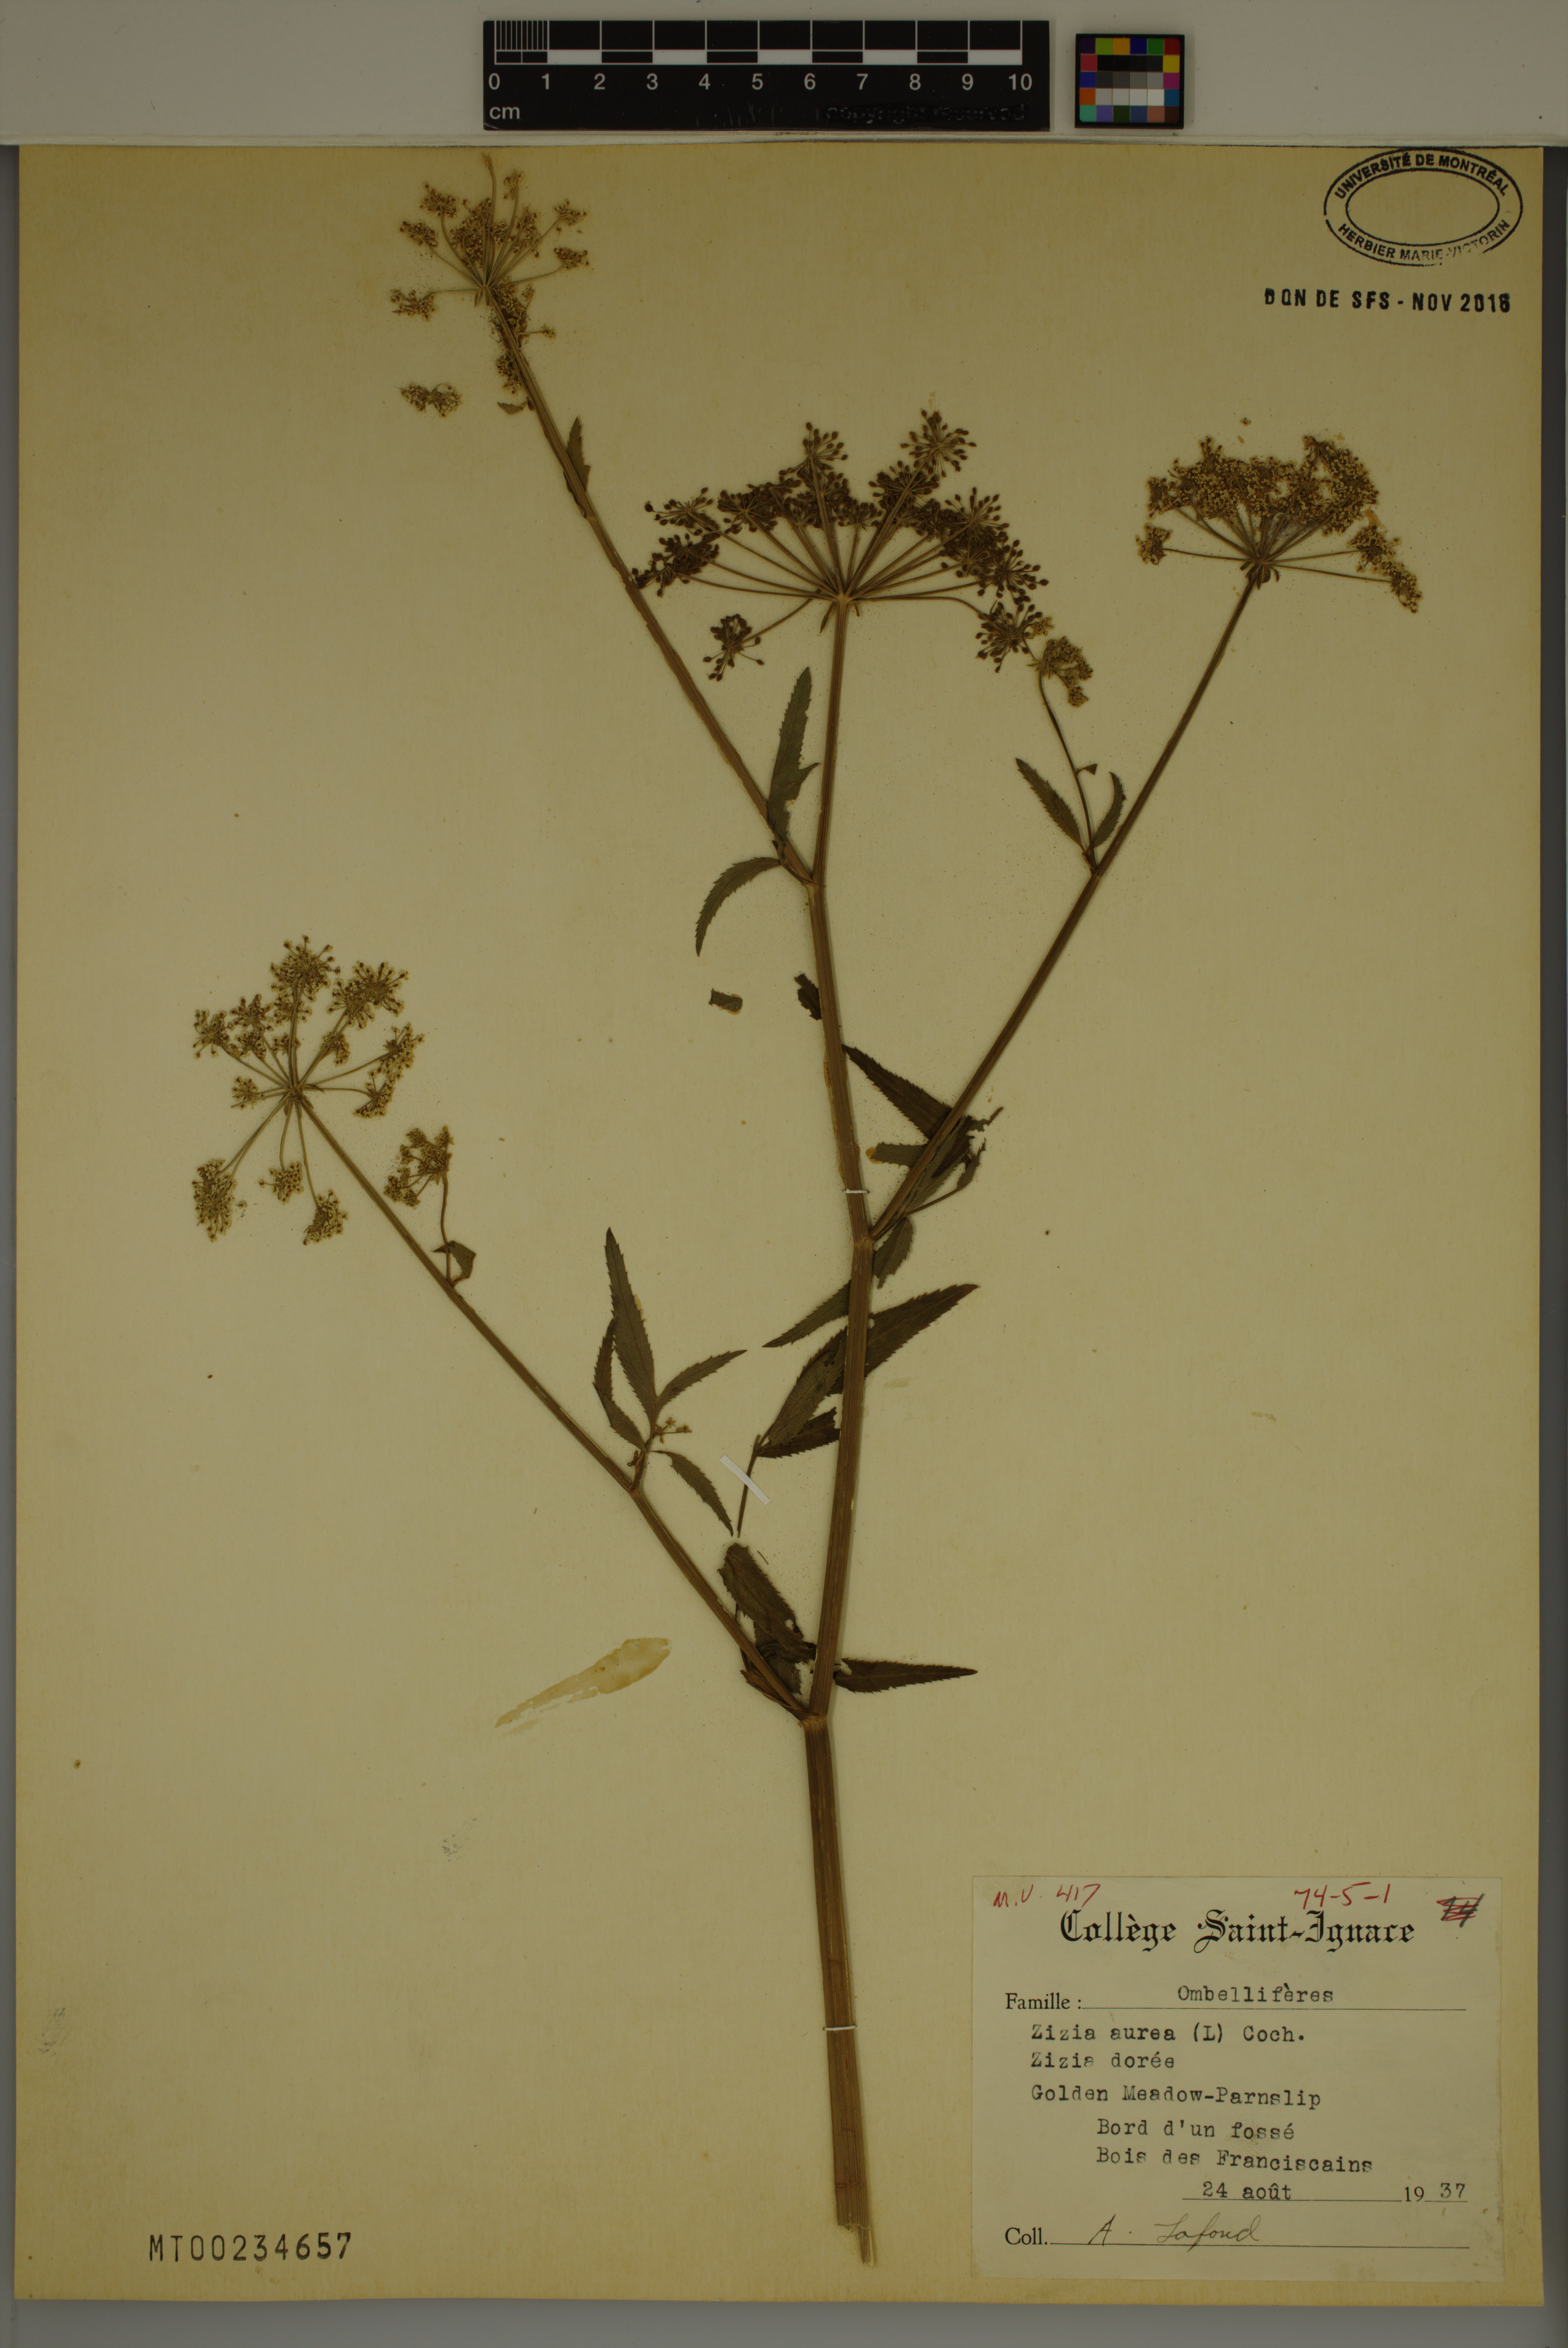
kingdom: Plantae
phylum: Tracheophyta
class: Magnoliopsida
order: Apiales
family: Apiaceae
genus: Zizia
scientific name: Zizia aurea
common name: Golden alexanders
